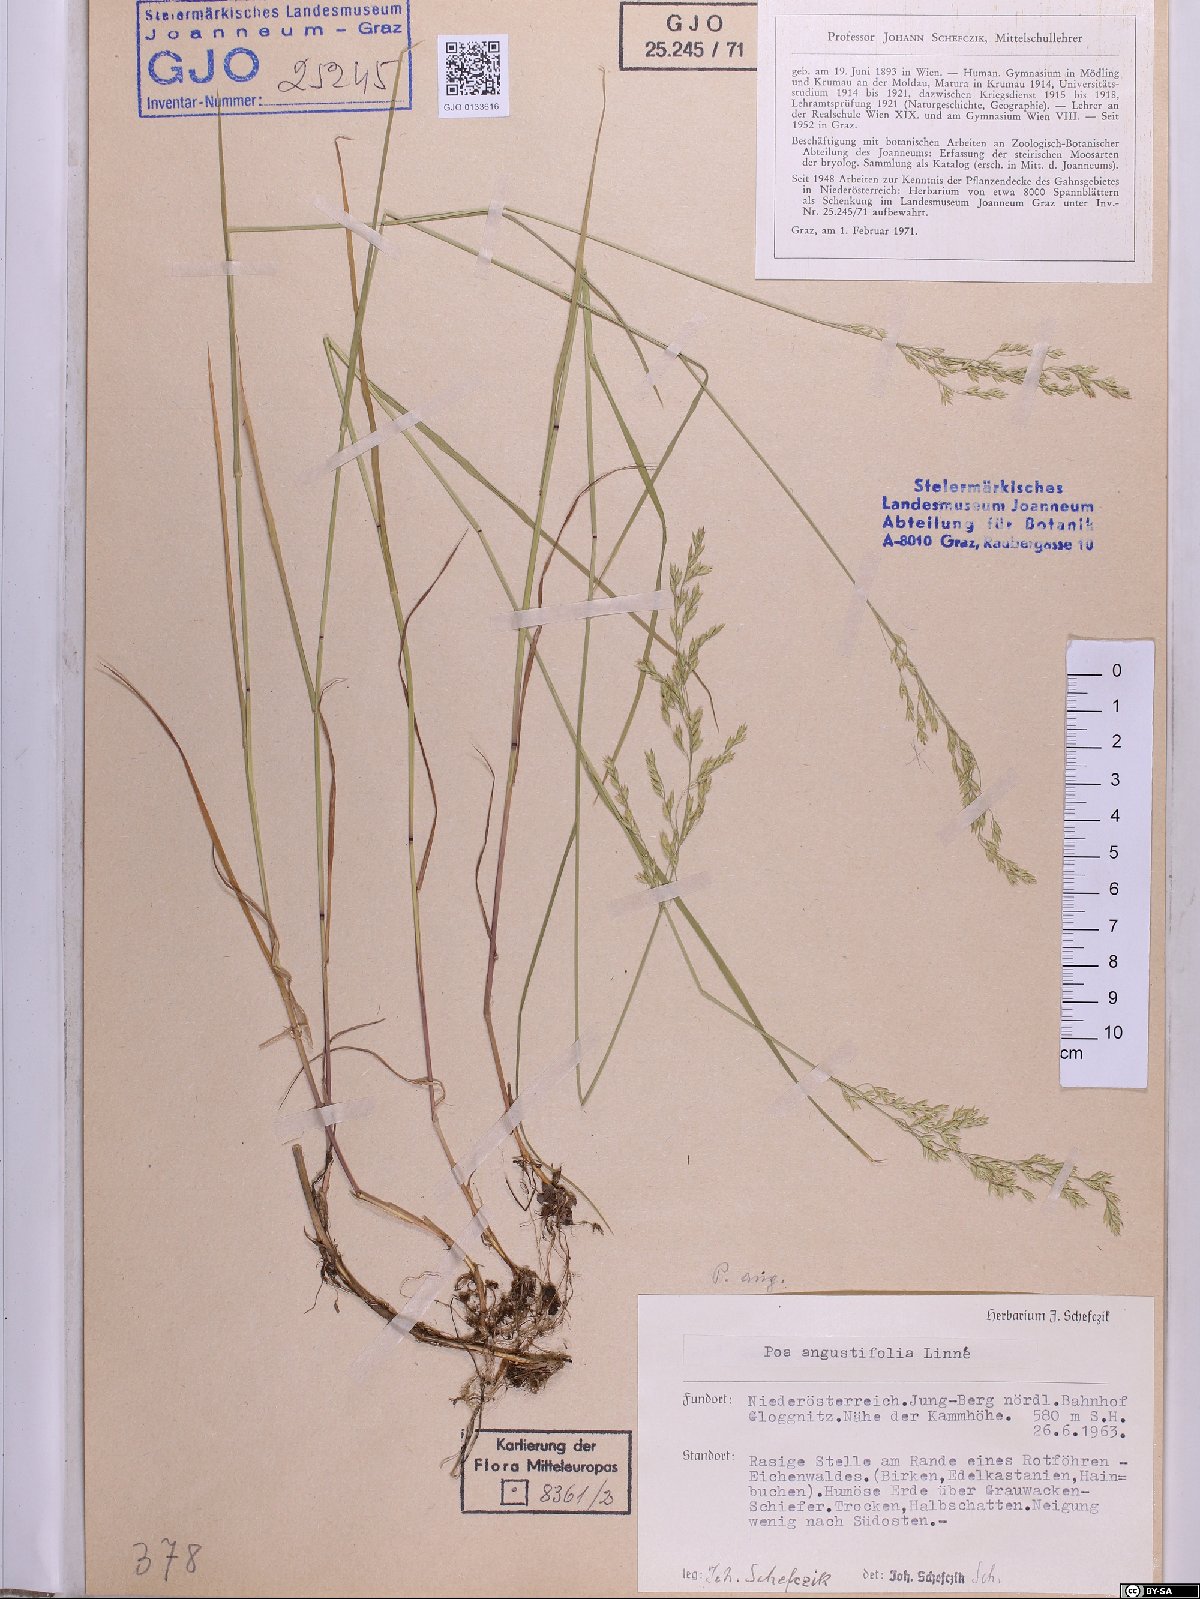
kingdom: Plantae
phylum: Tracheophyta
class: Liliopsida
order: Poales
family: Poaceae
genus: Poa
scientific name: Poa angustifolia
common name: Narrow-leaved meadow-grass
